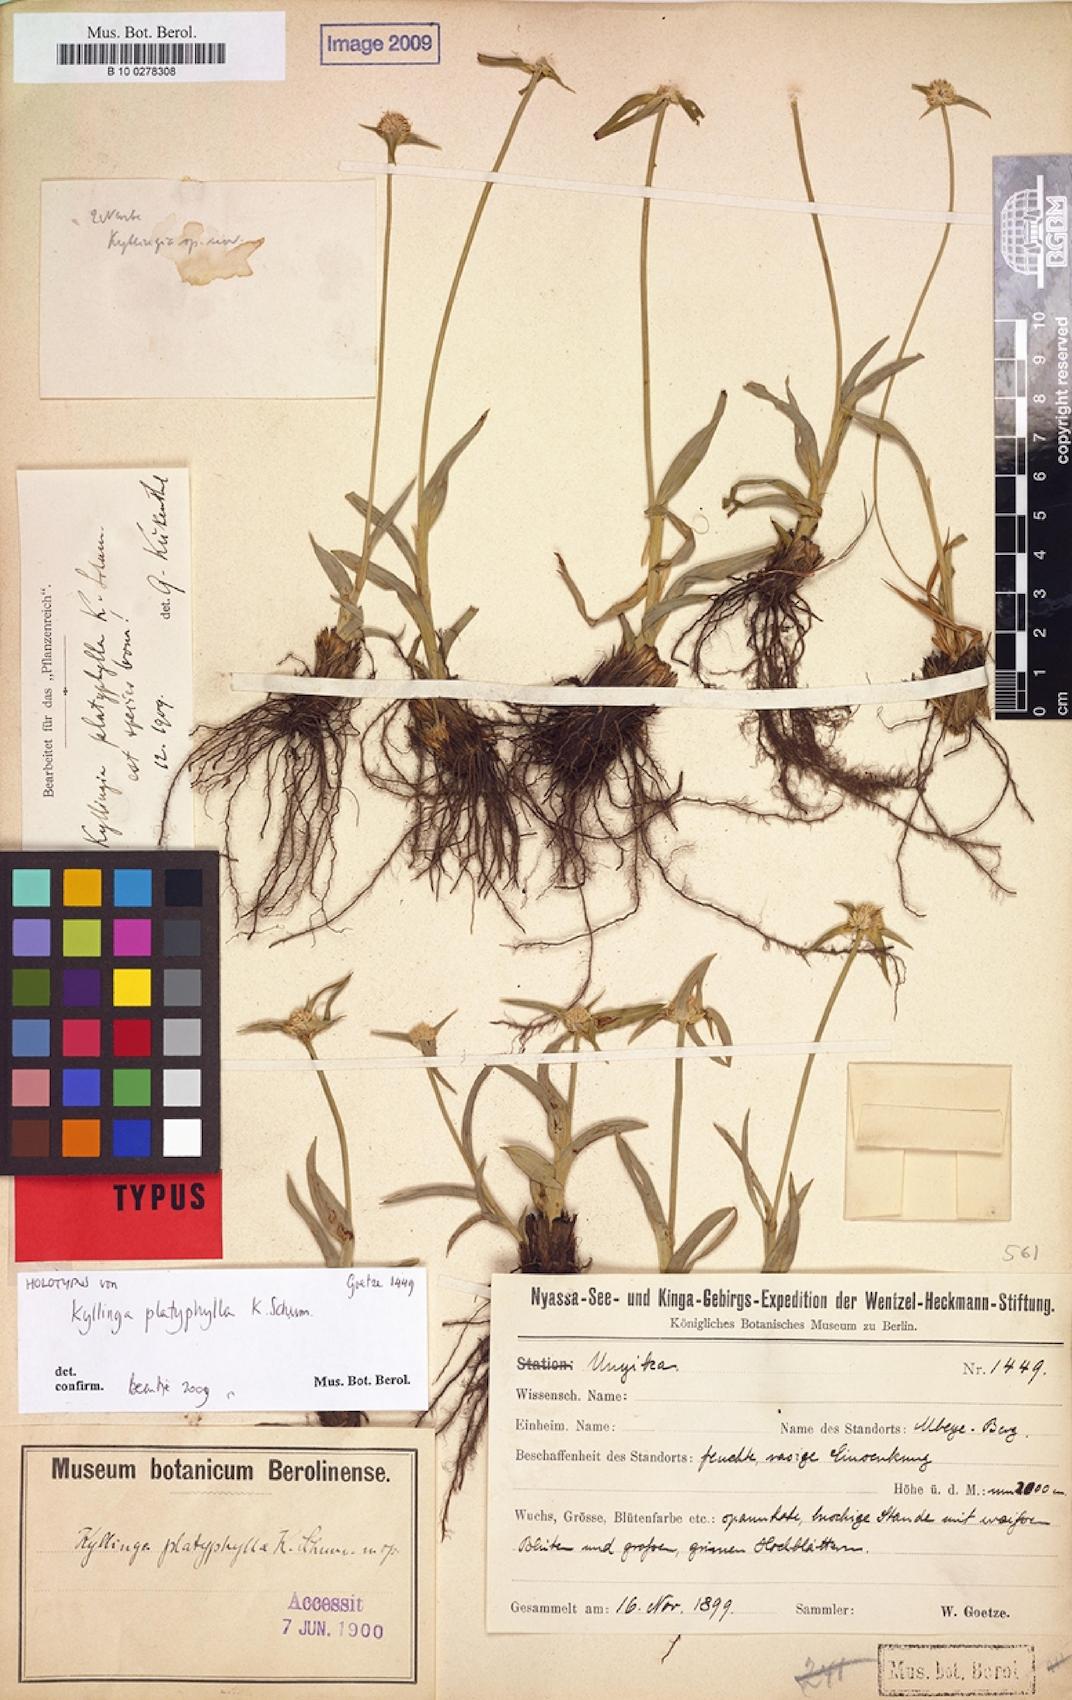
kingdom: Plantae
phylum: Tracheophyta
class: Liliopsida
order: Poales
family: Cyperaceae
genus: Cyperus
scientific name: Cyperus ciliatopilosus
